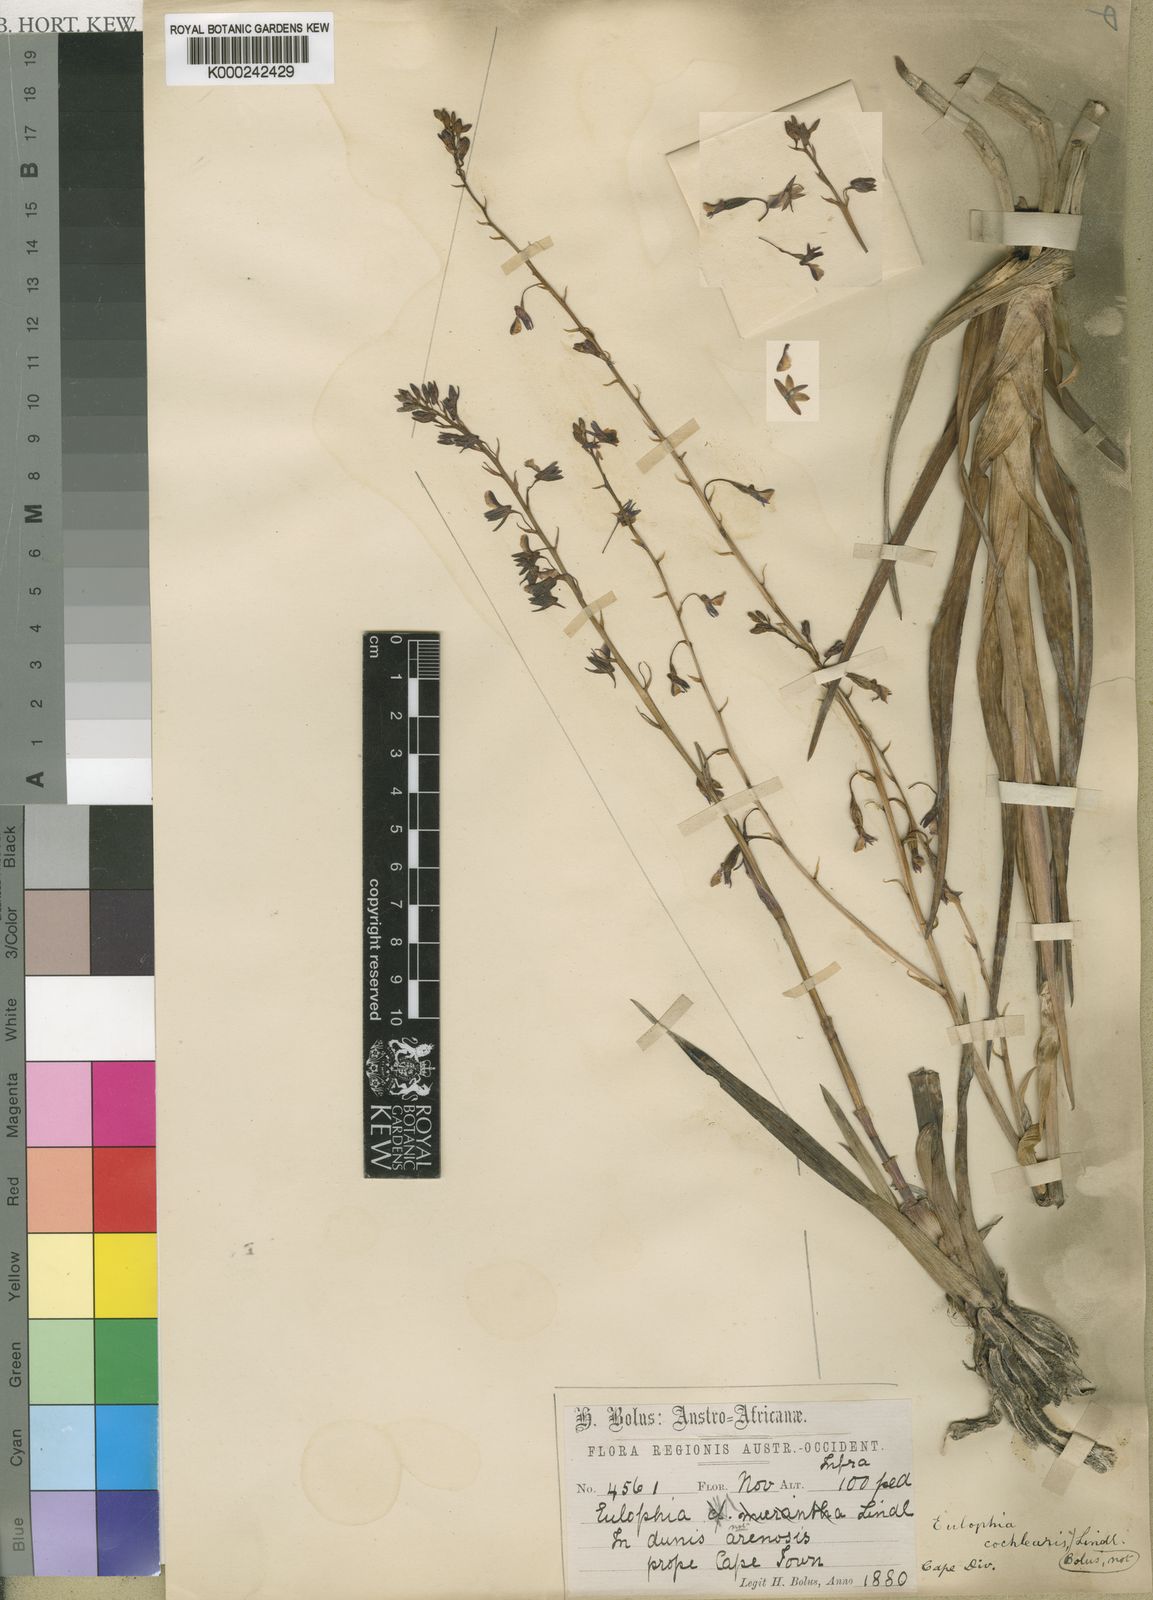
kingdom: Animalia
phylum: Arthropoda
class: Insecta
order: Orthoptera
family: Acrididae
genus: Stolzia
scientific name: Stolzia
